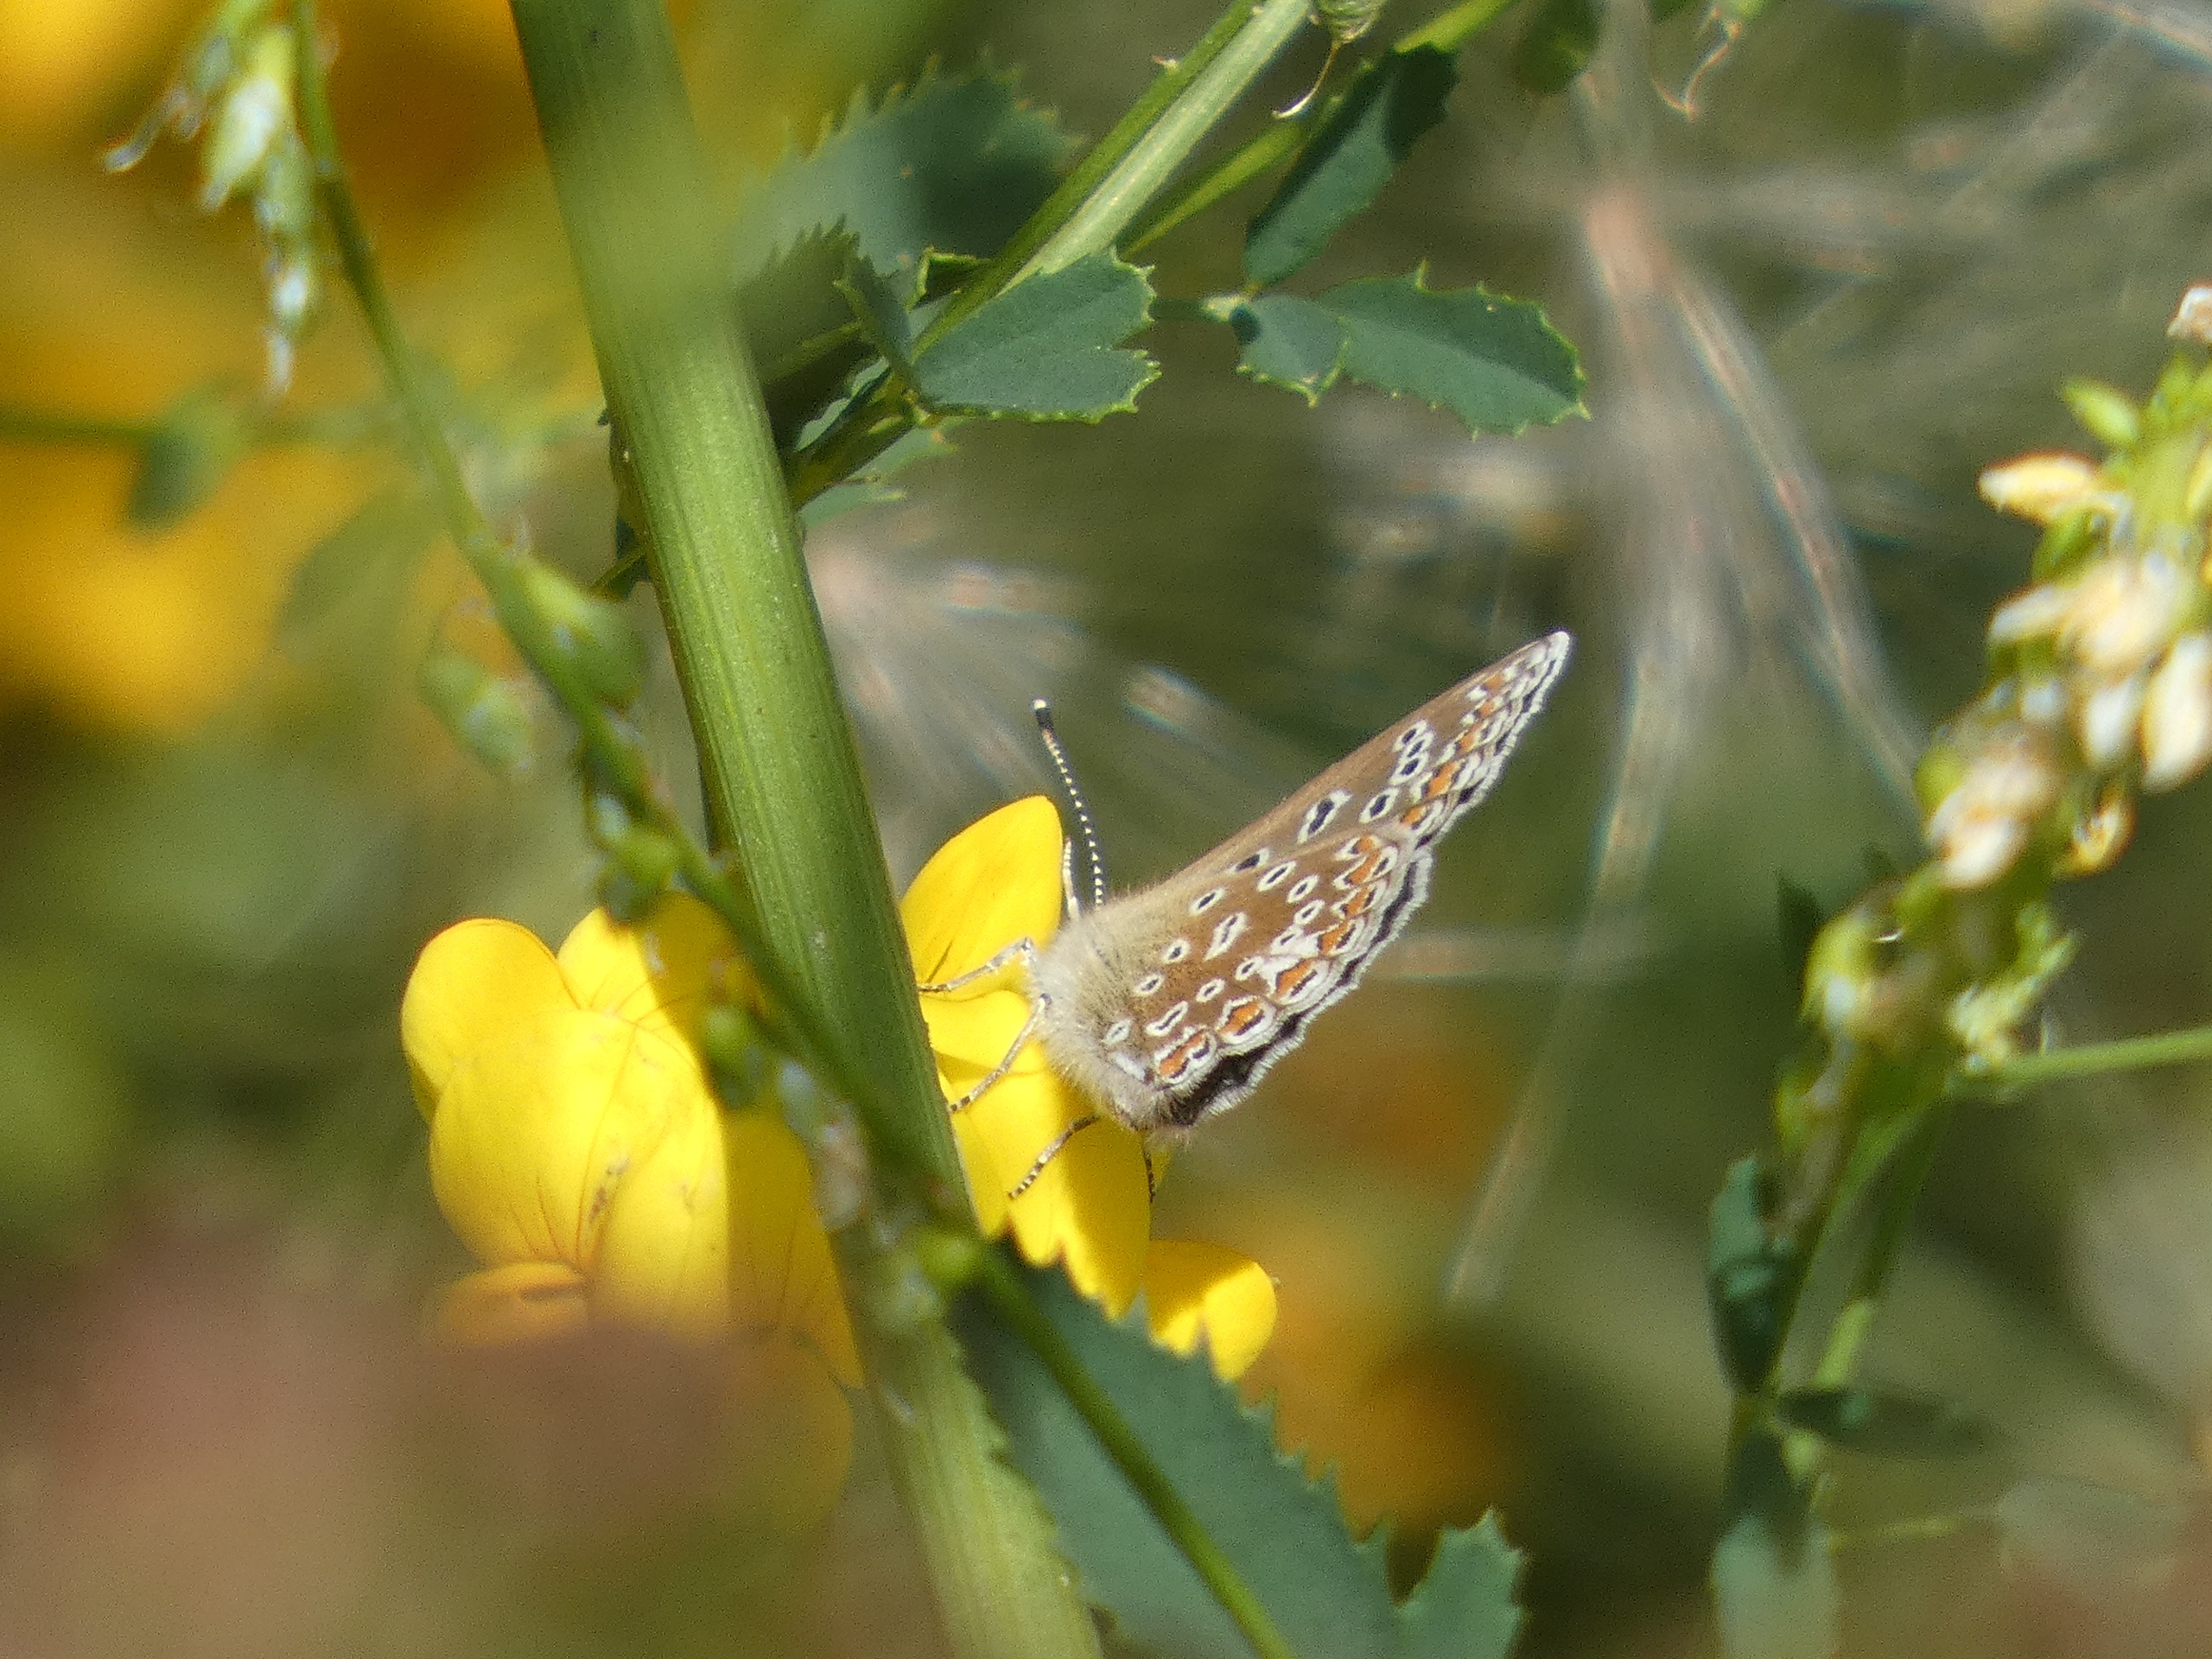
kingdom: Animalia
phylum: Arthropoda
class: Insecta
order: Lepidoptera
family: Lycaenidae
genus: Polyommatus
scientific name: Polyommatus icarus
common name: Almindelig blåfugl
